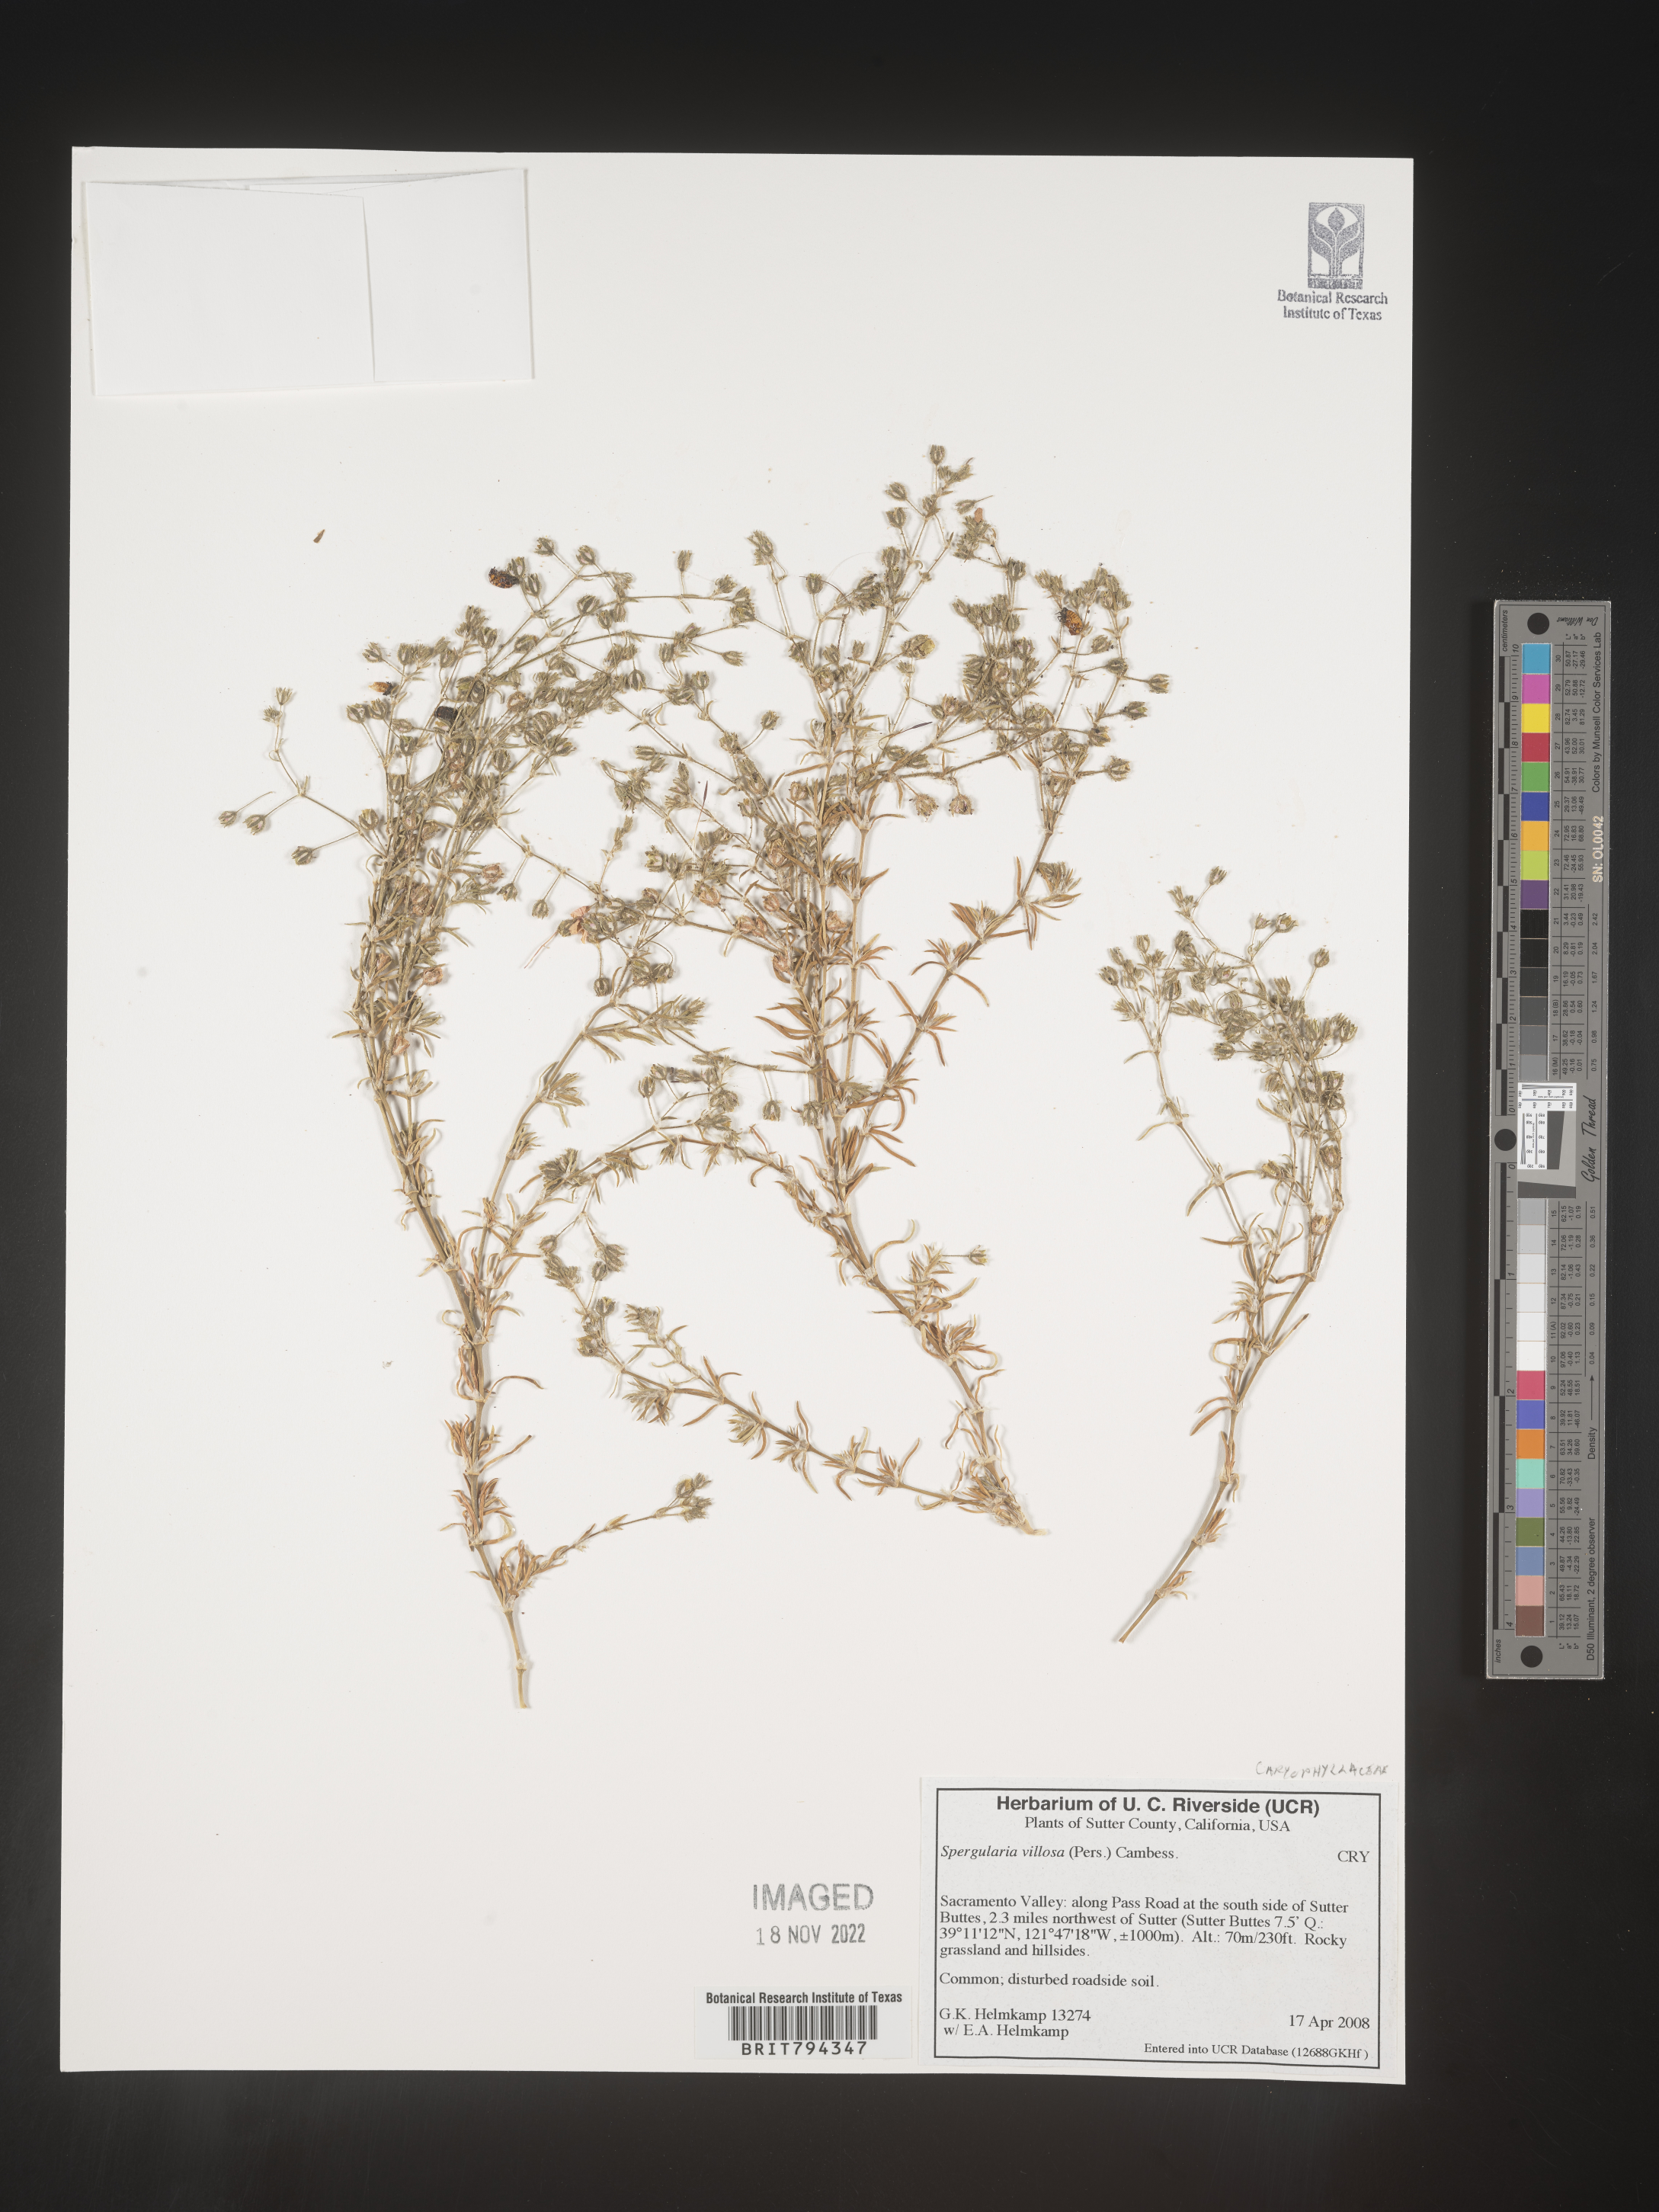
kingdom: Plantae
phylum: Tracheophyta
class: Magnoliopsida
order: Caryophyllales
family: Caryophyllaceae
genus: Spergularia
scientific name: Spergularia villosa
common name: Hairy sandspurry
